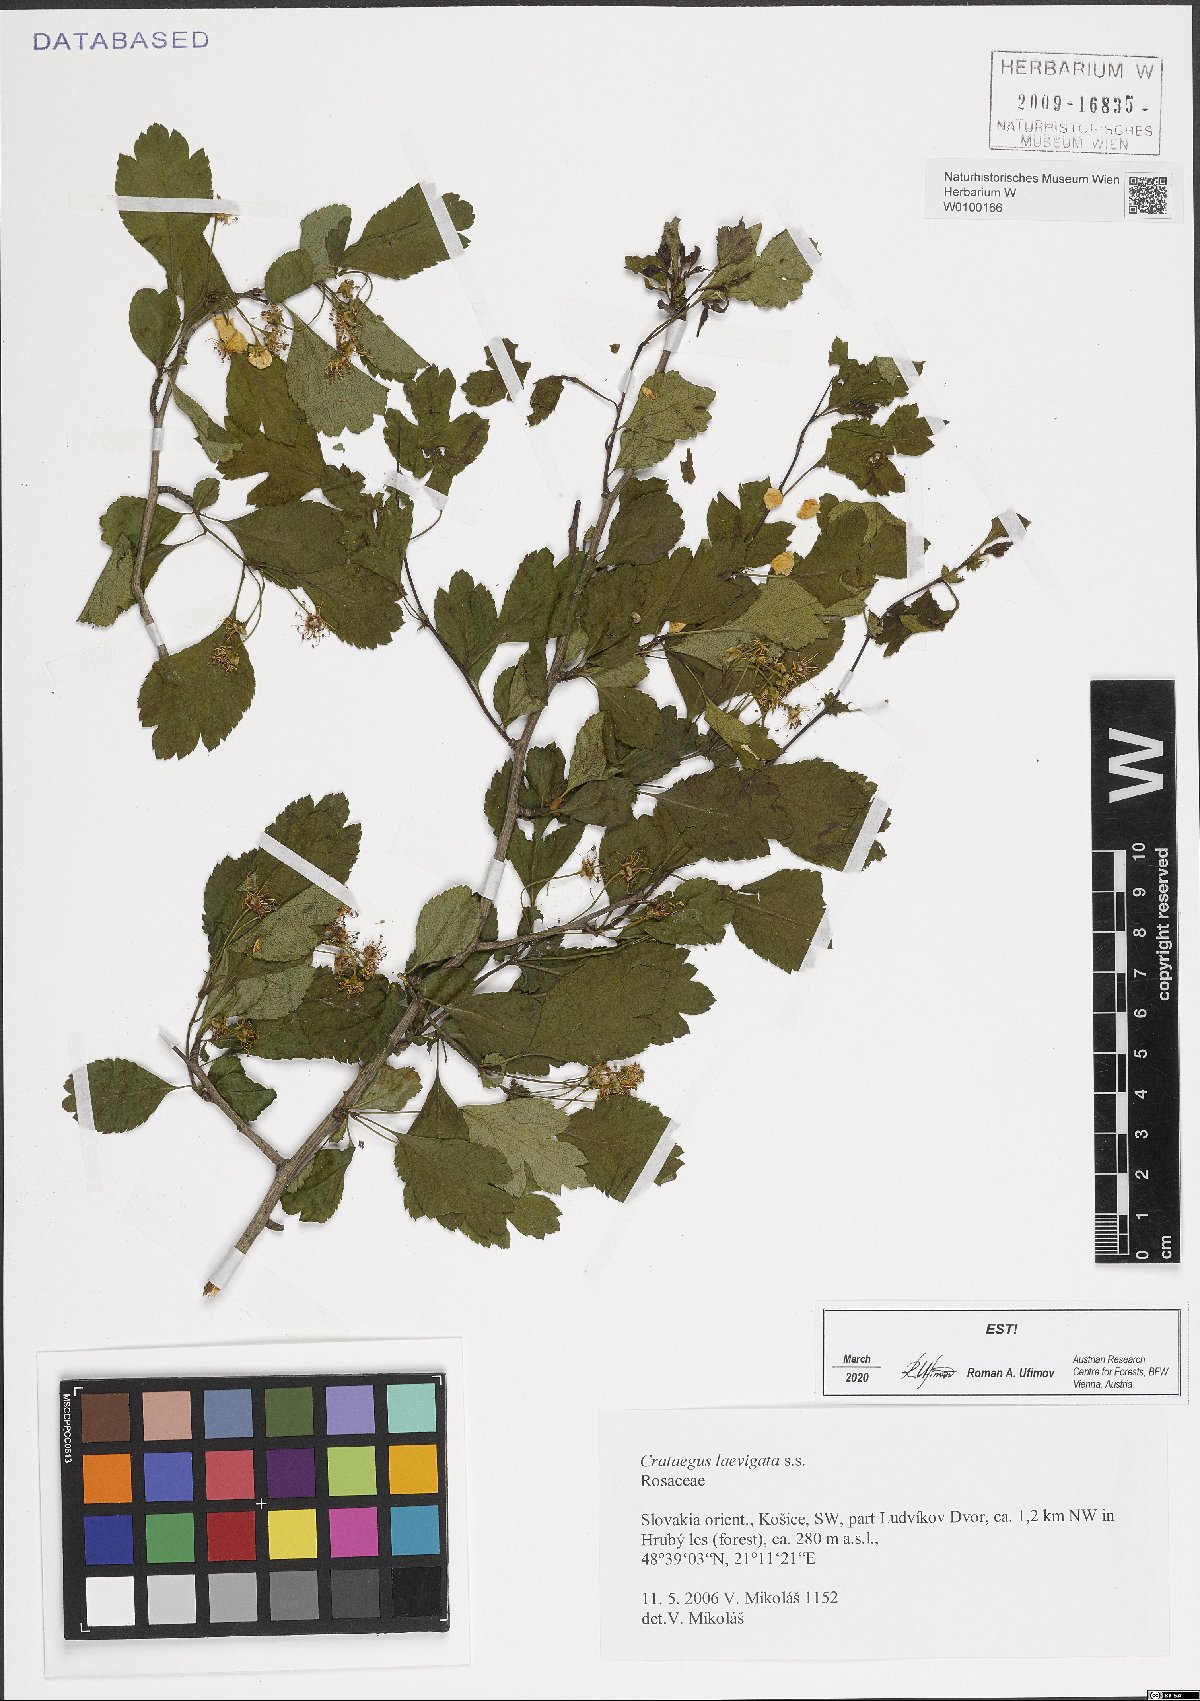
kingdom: Plantae
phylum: Tracheophyta
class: Magnoliopsida
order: Rosales
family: Rosaceae
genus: Crataegus
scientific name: Crataegus laevigata
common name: Midland hawthorn
